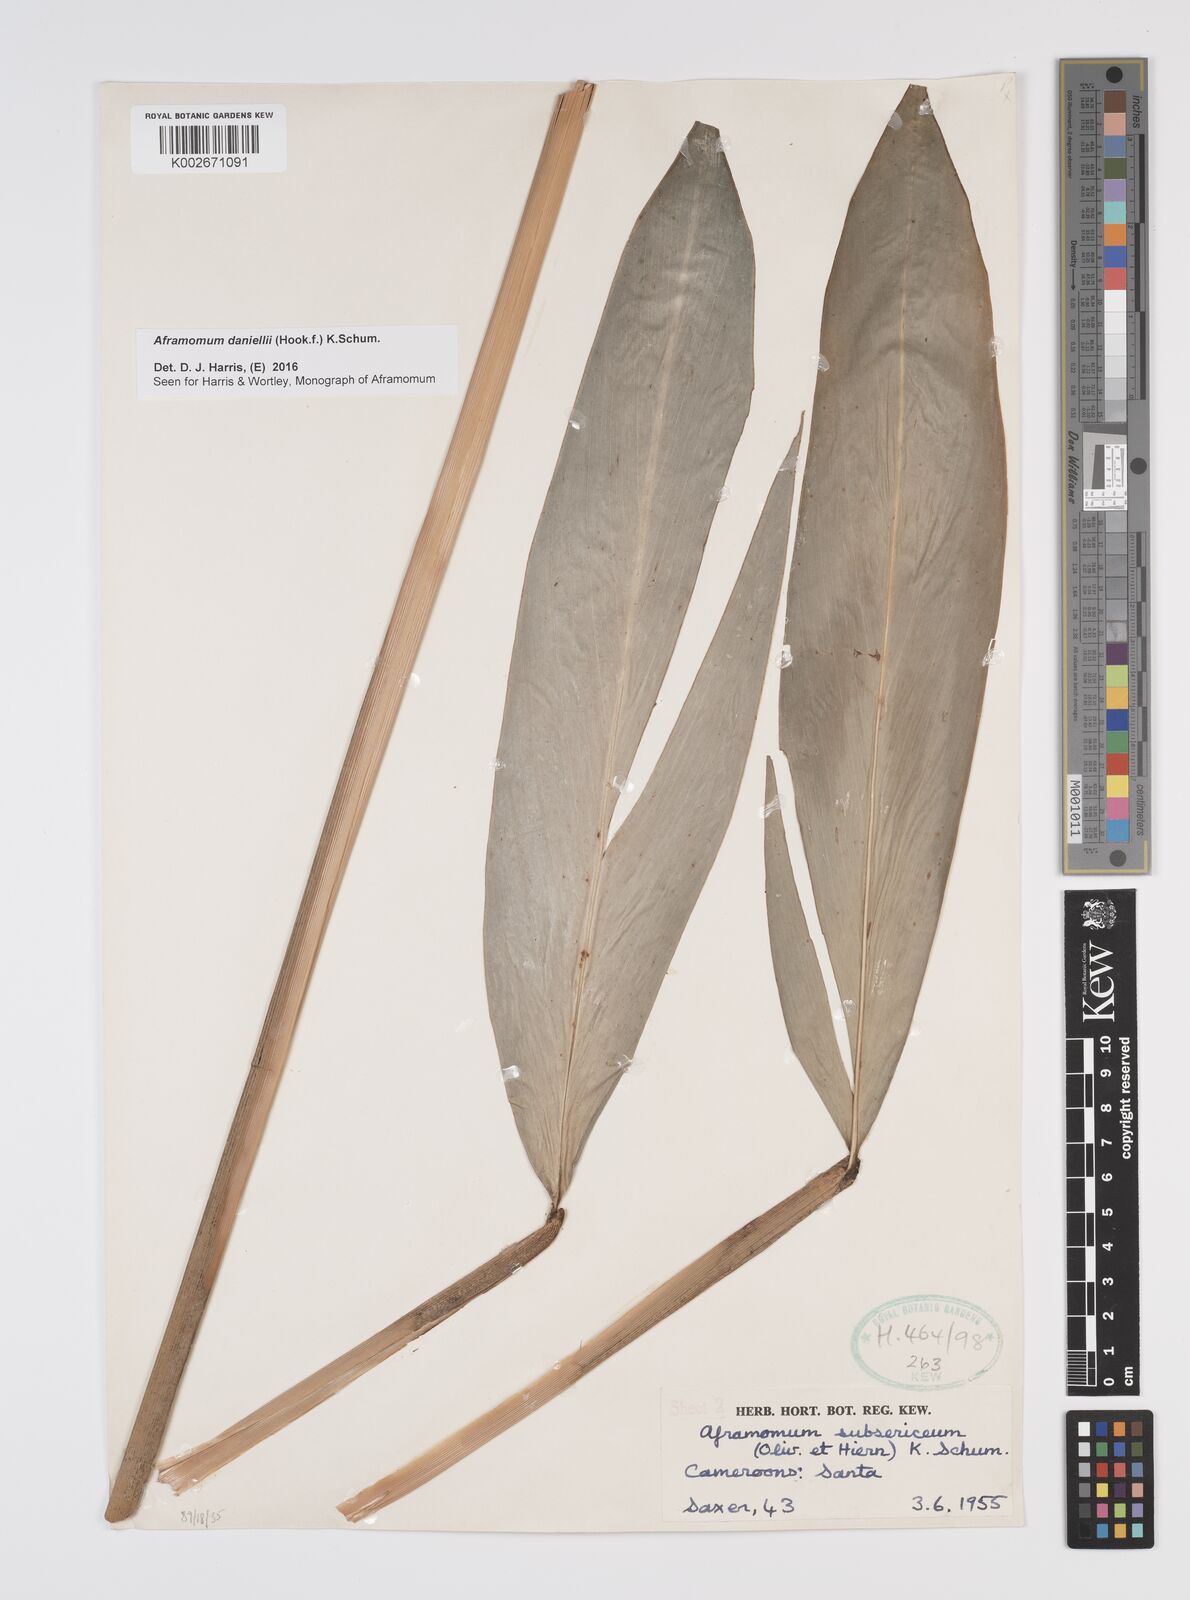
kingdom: Plantae
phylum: Tracheophyta
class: Liliopsida
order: Zingiberales
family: Zingiberaceae
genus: Aframomum
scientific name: Aframomum daniellii
